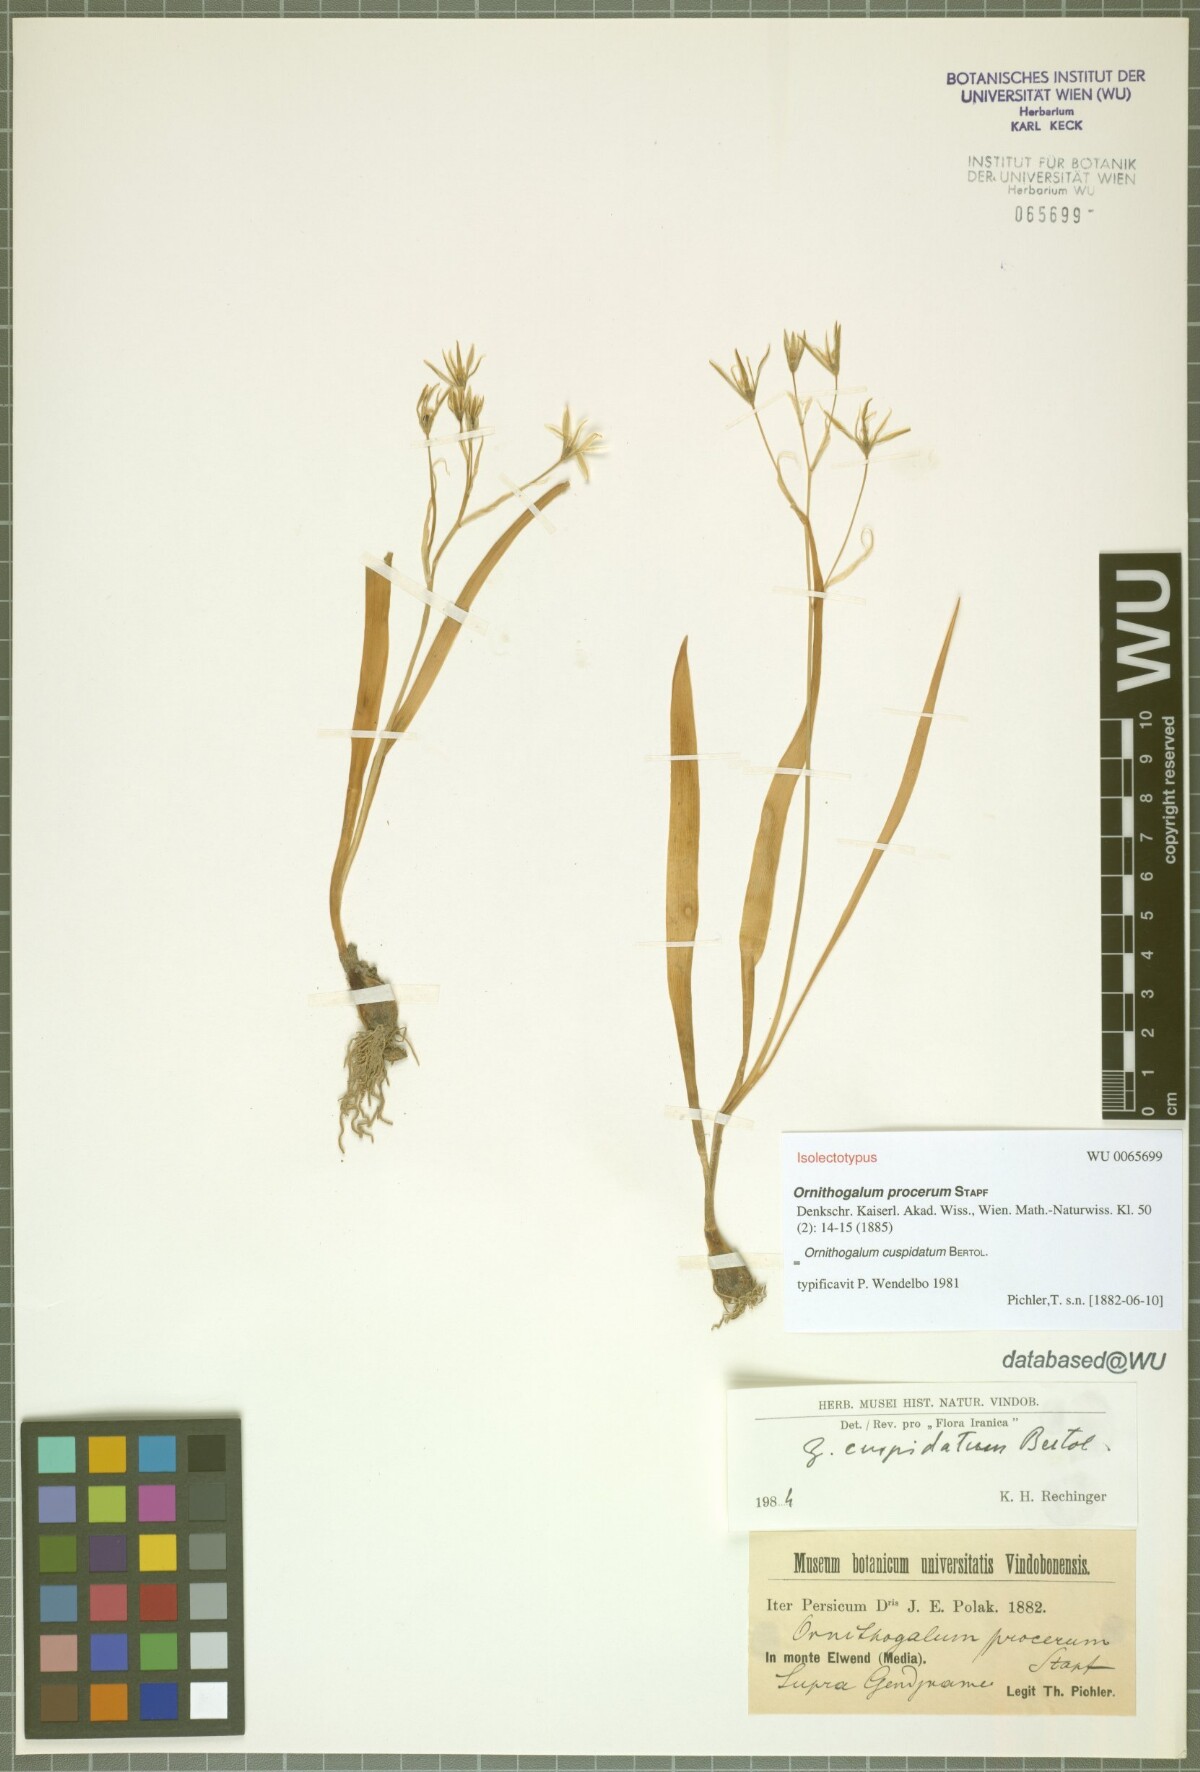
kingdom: Plantae
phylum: Tracheophyta
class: Liliopsida
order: Asparagales
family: Asparagaceae
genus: Ornithogalum
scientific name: Ornithogalum cuspidatum
